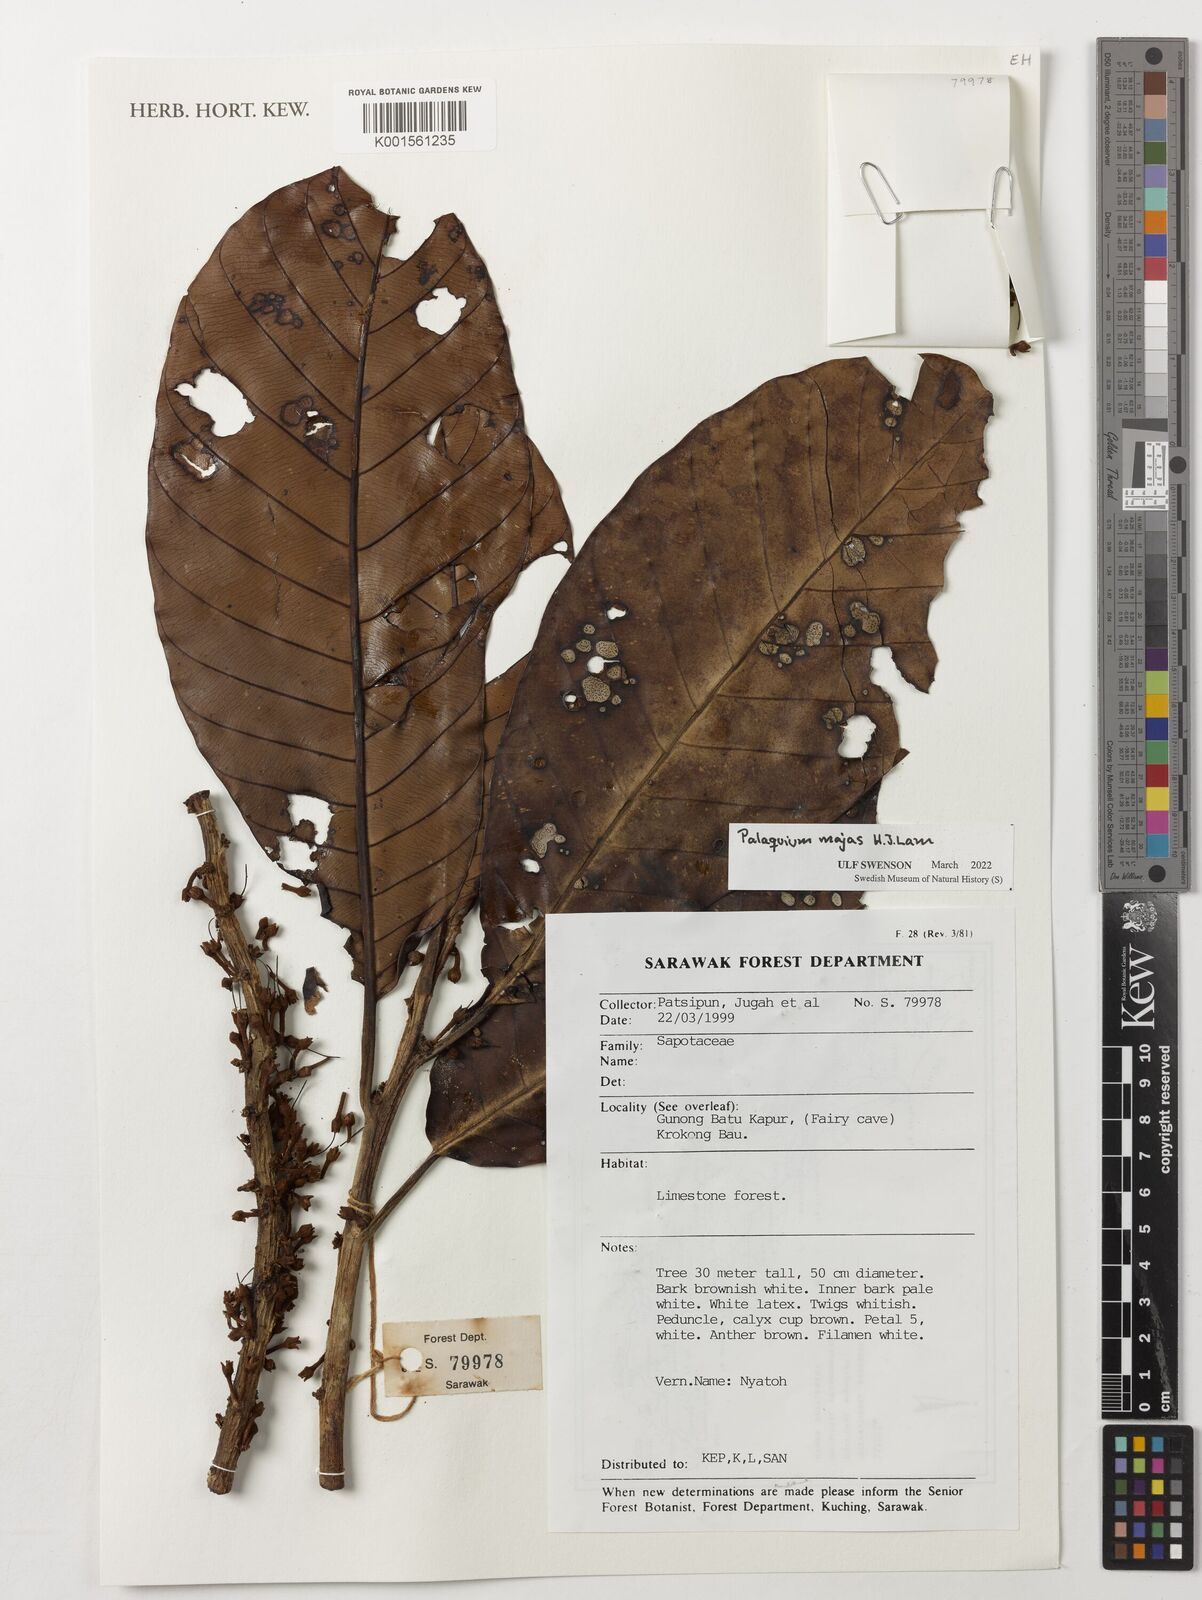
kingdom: Plantae
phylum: Tracheophyta
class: Magnoliopsida
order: Ericales
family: Sapotaceae
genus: Palaquium
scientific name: Palaquium majas
